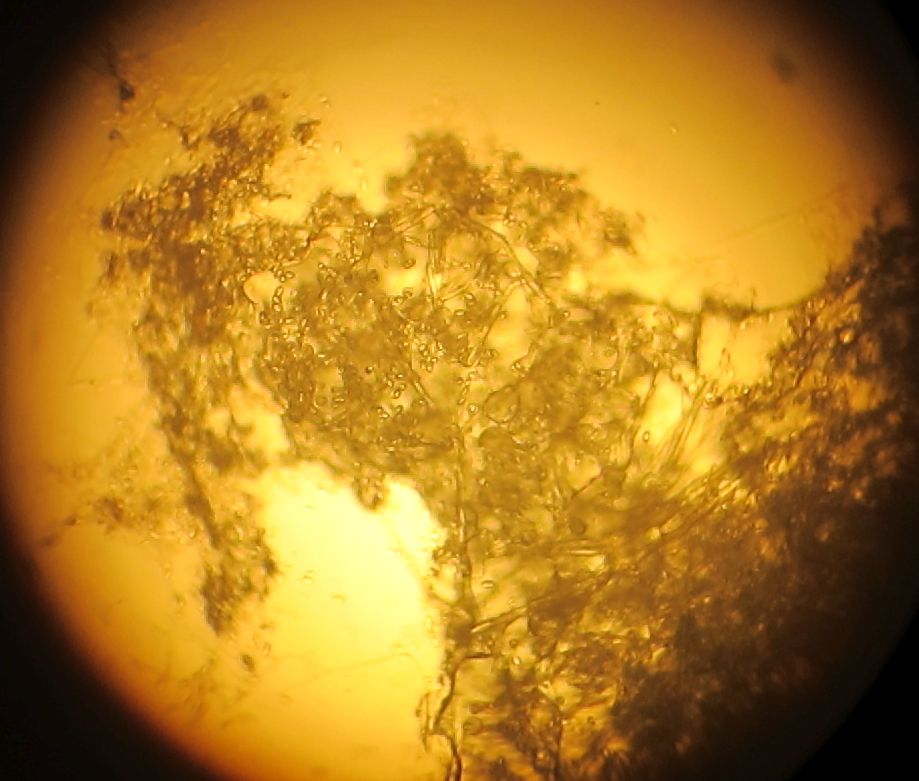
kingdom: Fungi
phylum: Ascomycota
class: Sordariomycetes
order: Hypocreales
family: Hypocreaceae
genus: Hypomyces
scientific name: Hypomyces aurantius
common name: almindelig snylteskorpe
